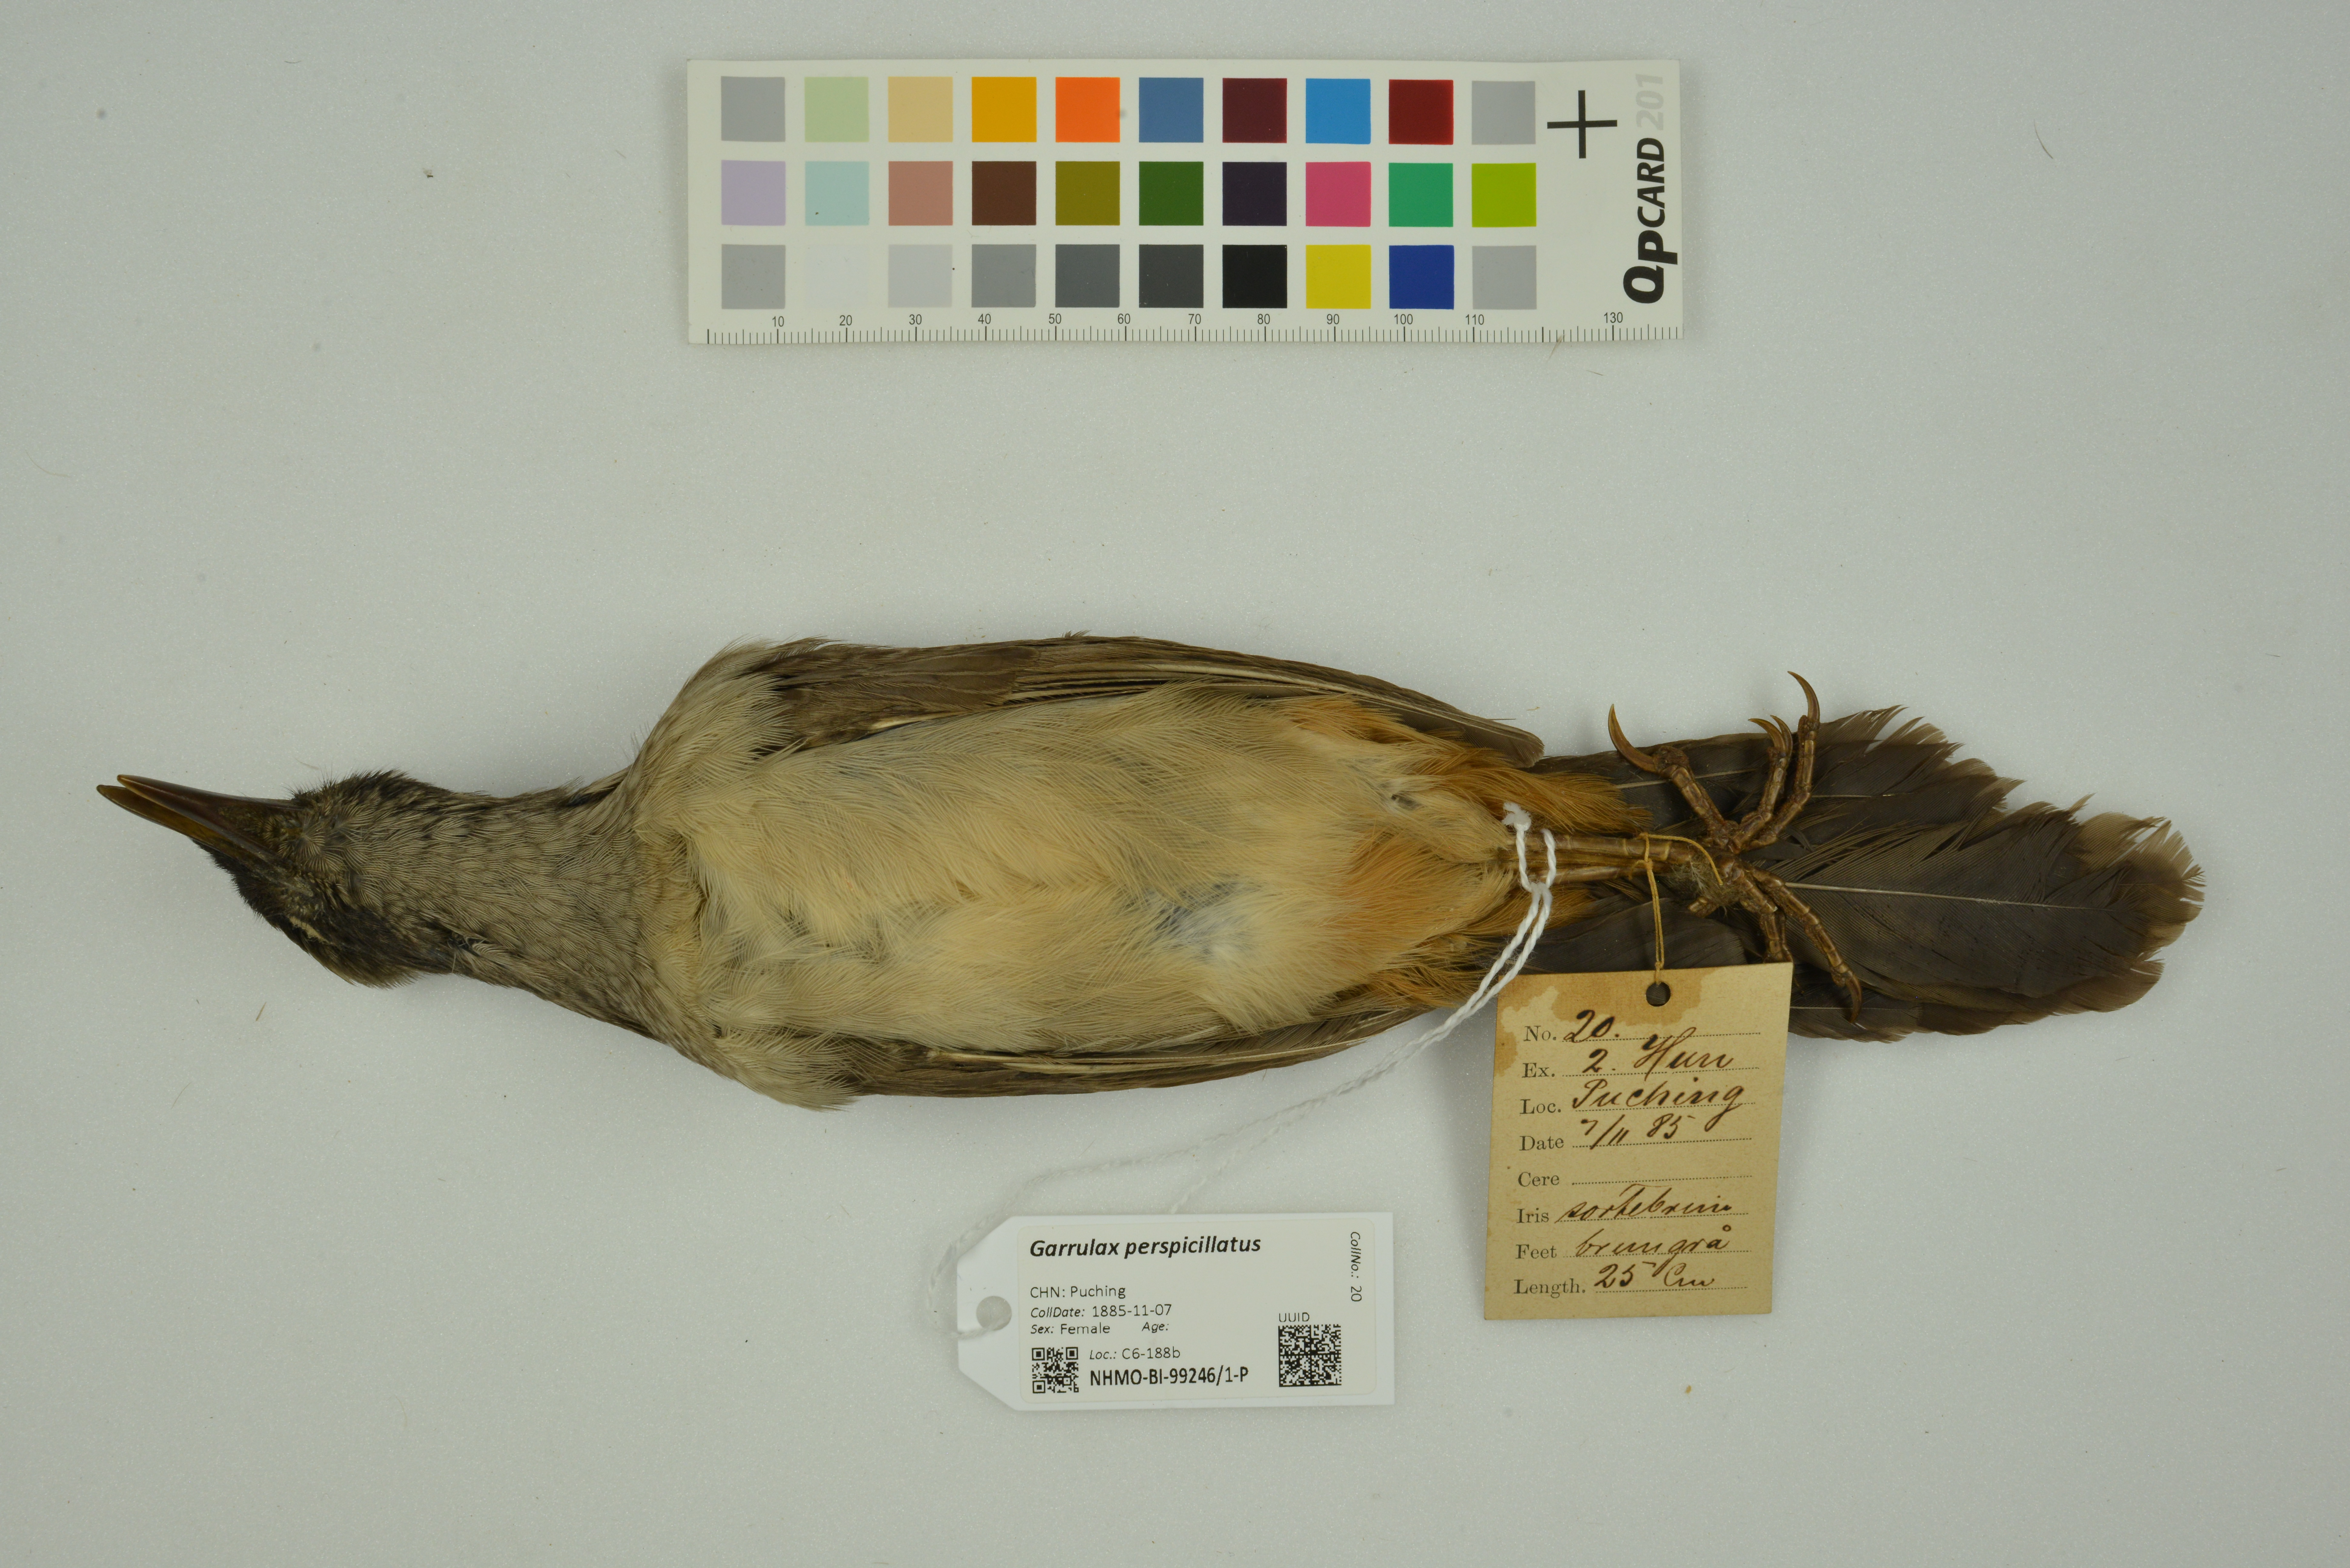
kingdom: Animalia
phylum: Chordata
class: Aves
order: Passeriformes
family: Leiothrichidae
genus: Garrulax
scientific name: Garrulax perspicillatus
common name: Masked laughingthrush
